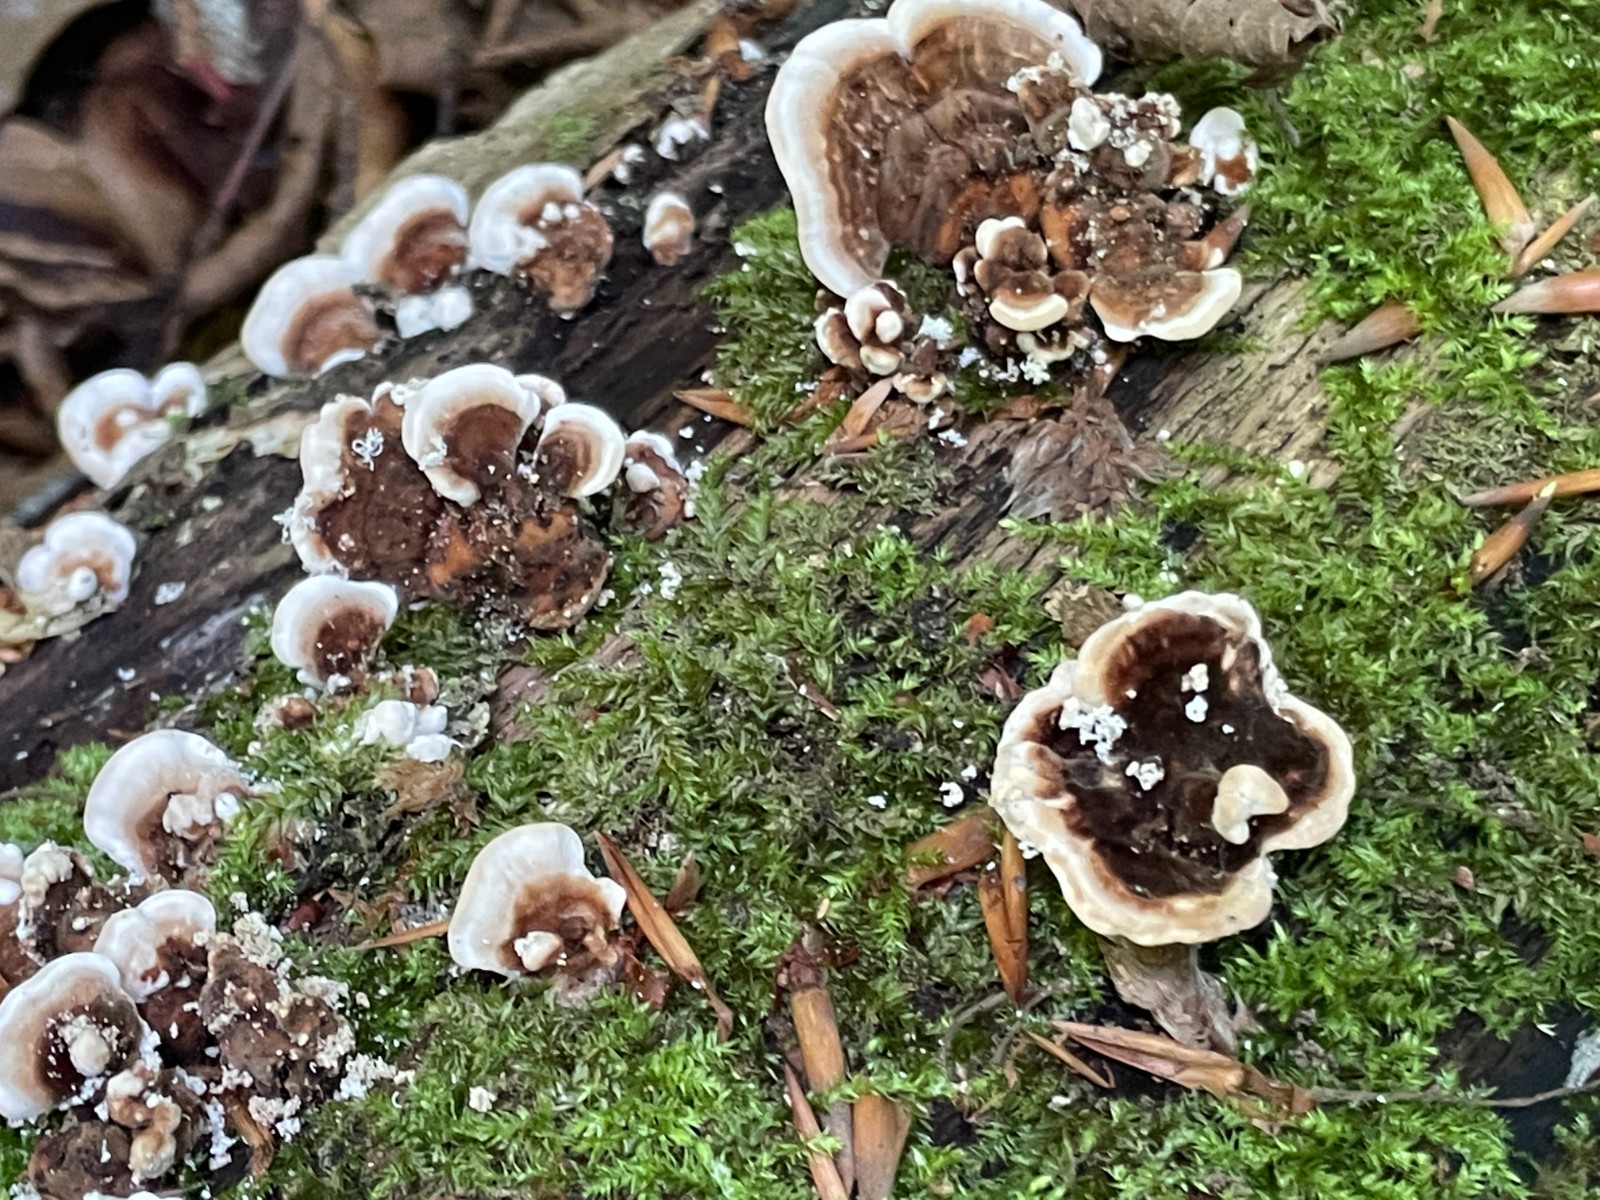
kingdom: Fungi
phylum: Basidiomycota
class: Agaricomycetes
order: Polyporales
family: Polyporaceae
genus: Trametes
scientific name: Trametes versicolor
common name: broget læderporesvamp
